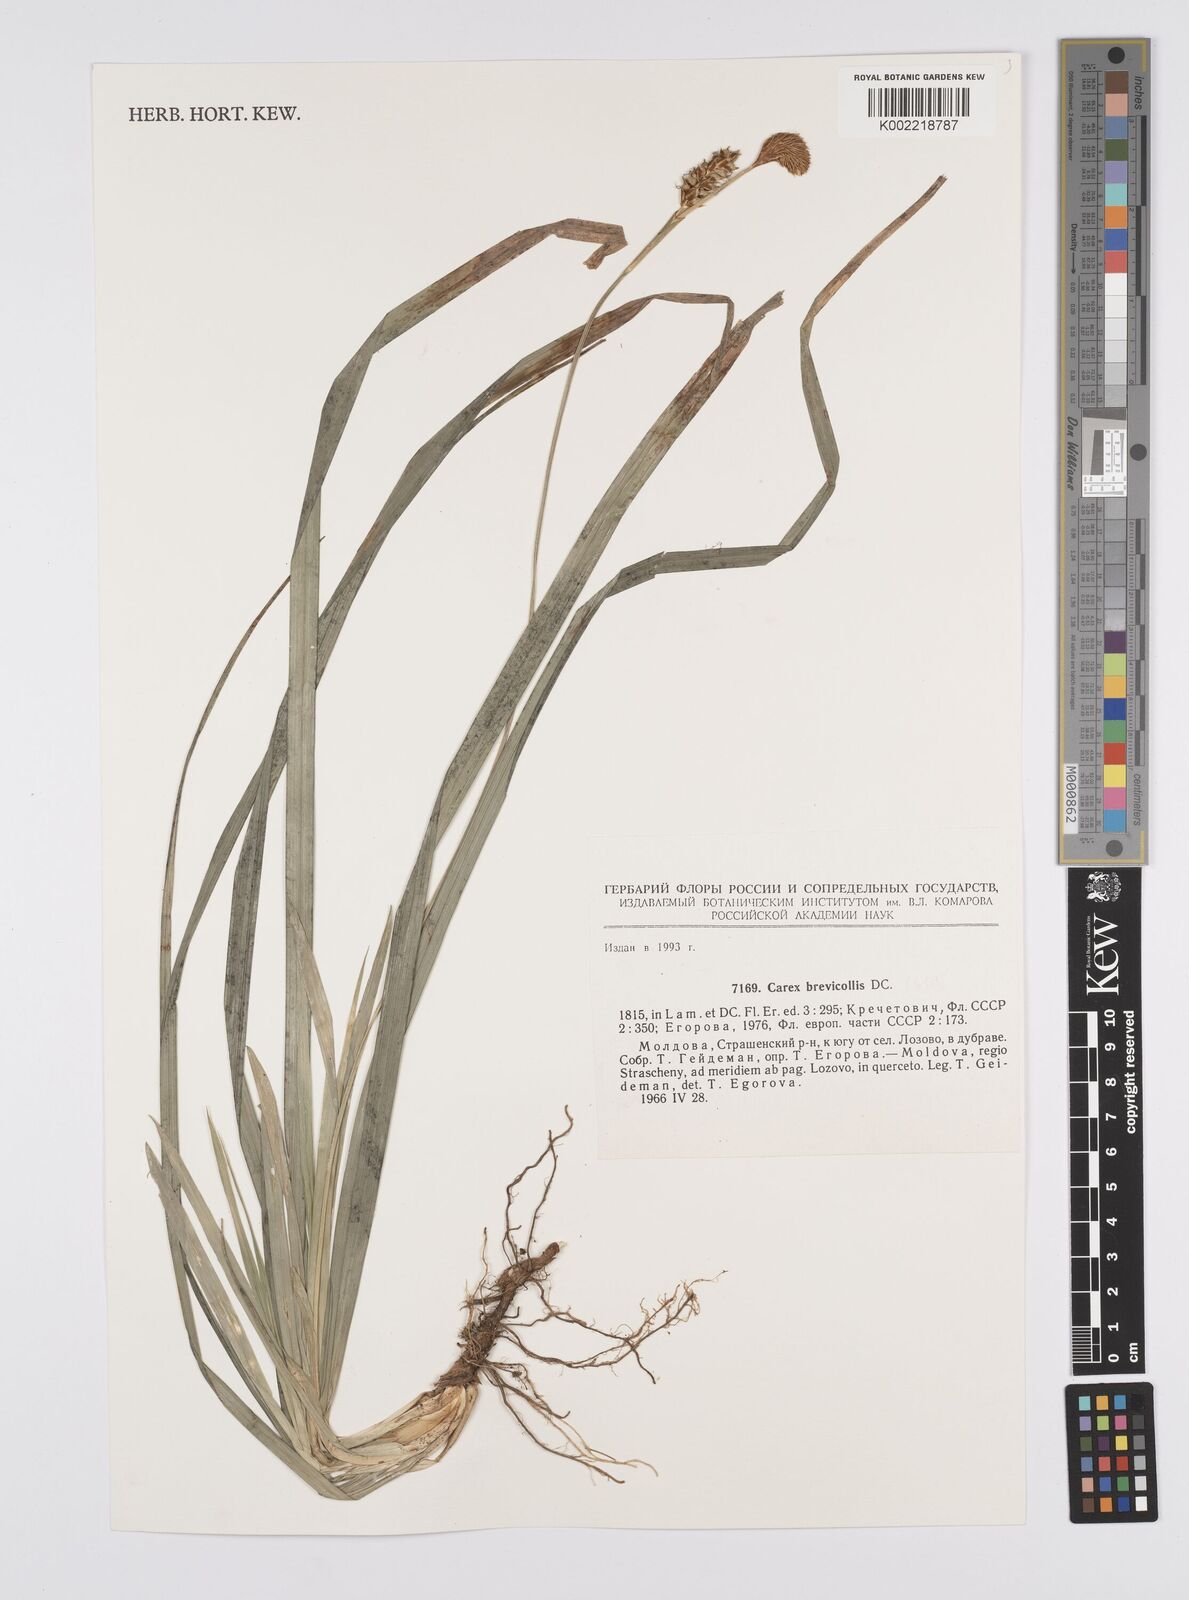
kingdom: Plantae
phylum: Tracheophyta
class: Liliopsida
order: Poales
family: Cyperaceae
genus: Carex
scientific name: Carex brevicollis
